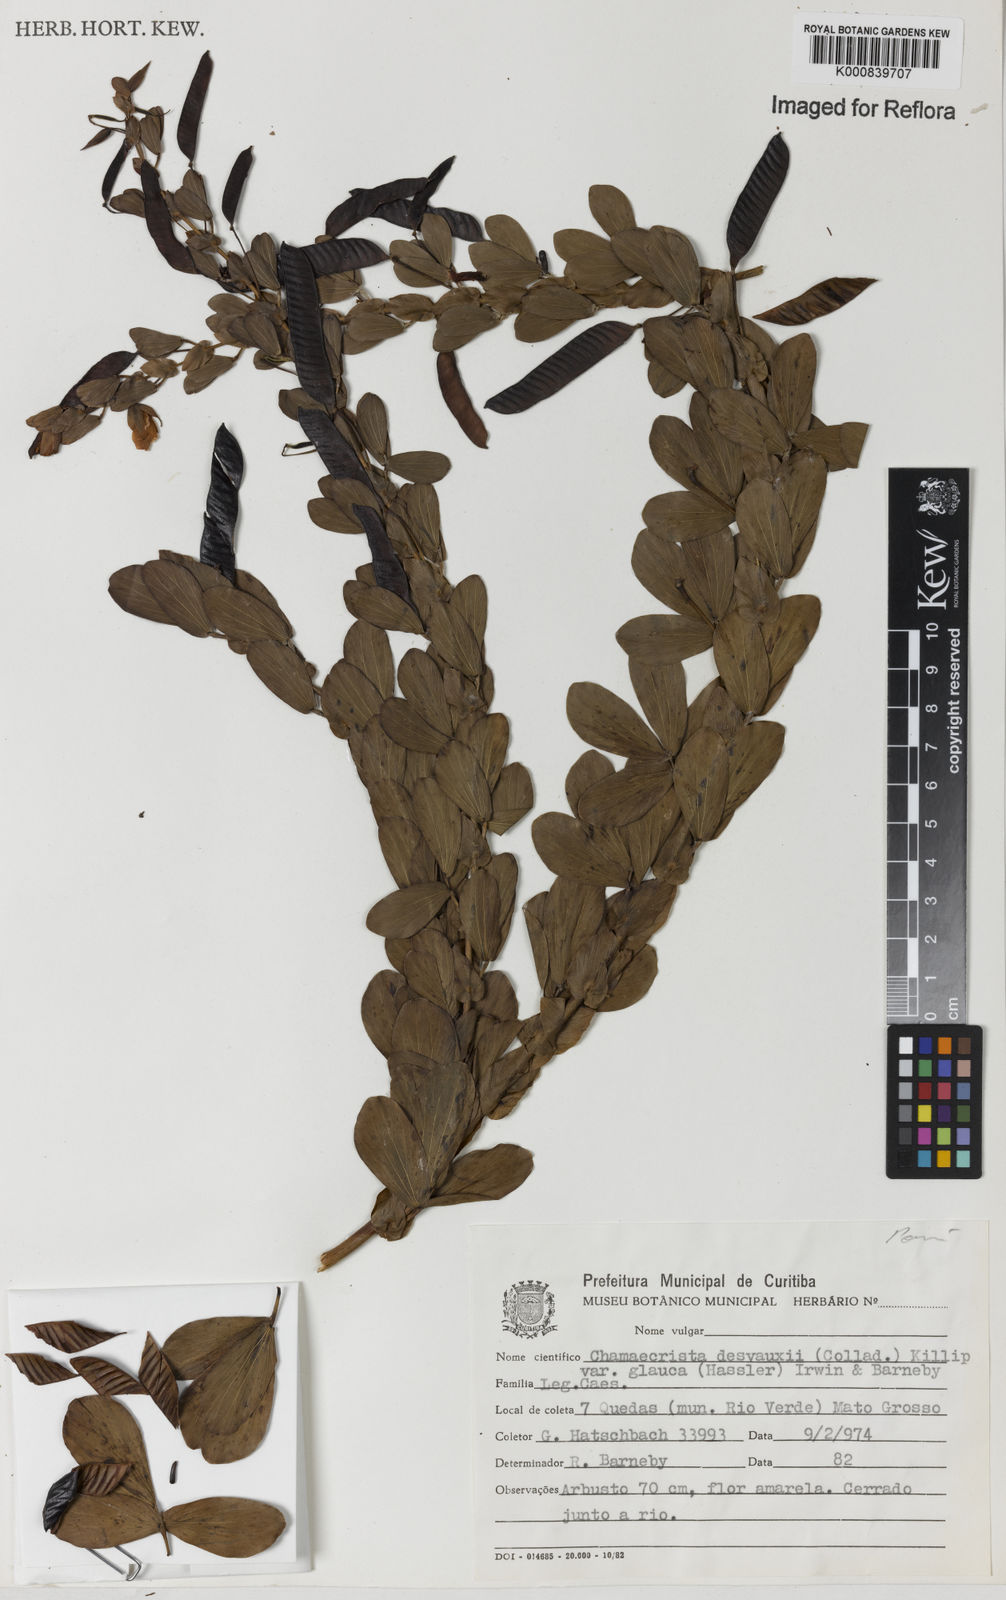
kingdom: Plantae
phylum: Tracheophyta
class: Magnoliopsida
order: Fabales
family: Fabaceae
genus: Chamaecrista
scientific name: Chamaecrista desvauxii
